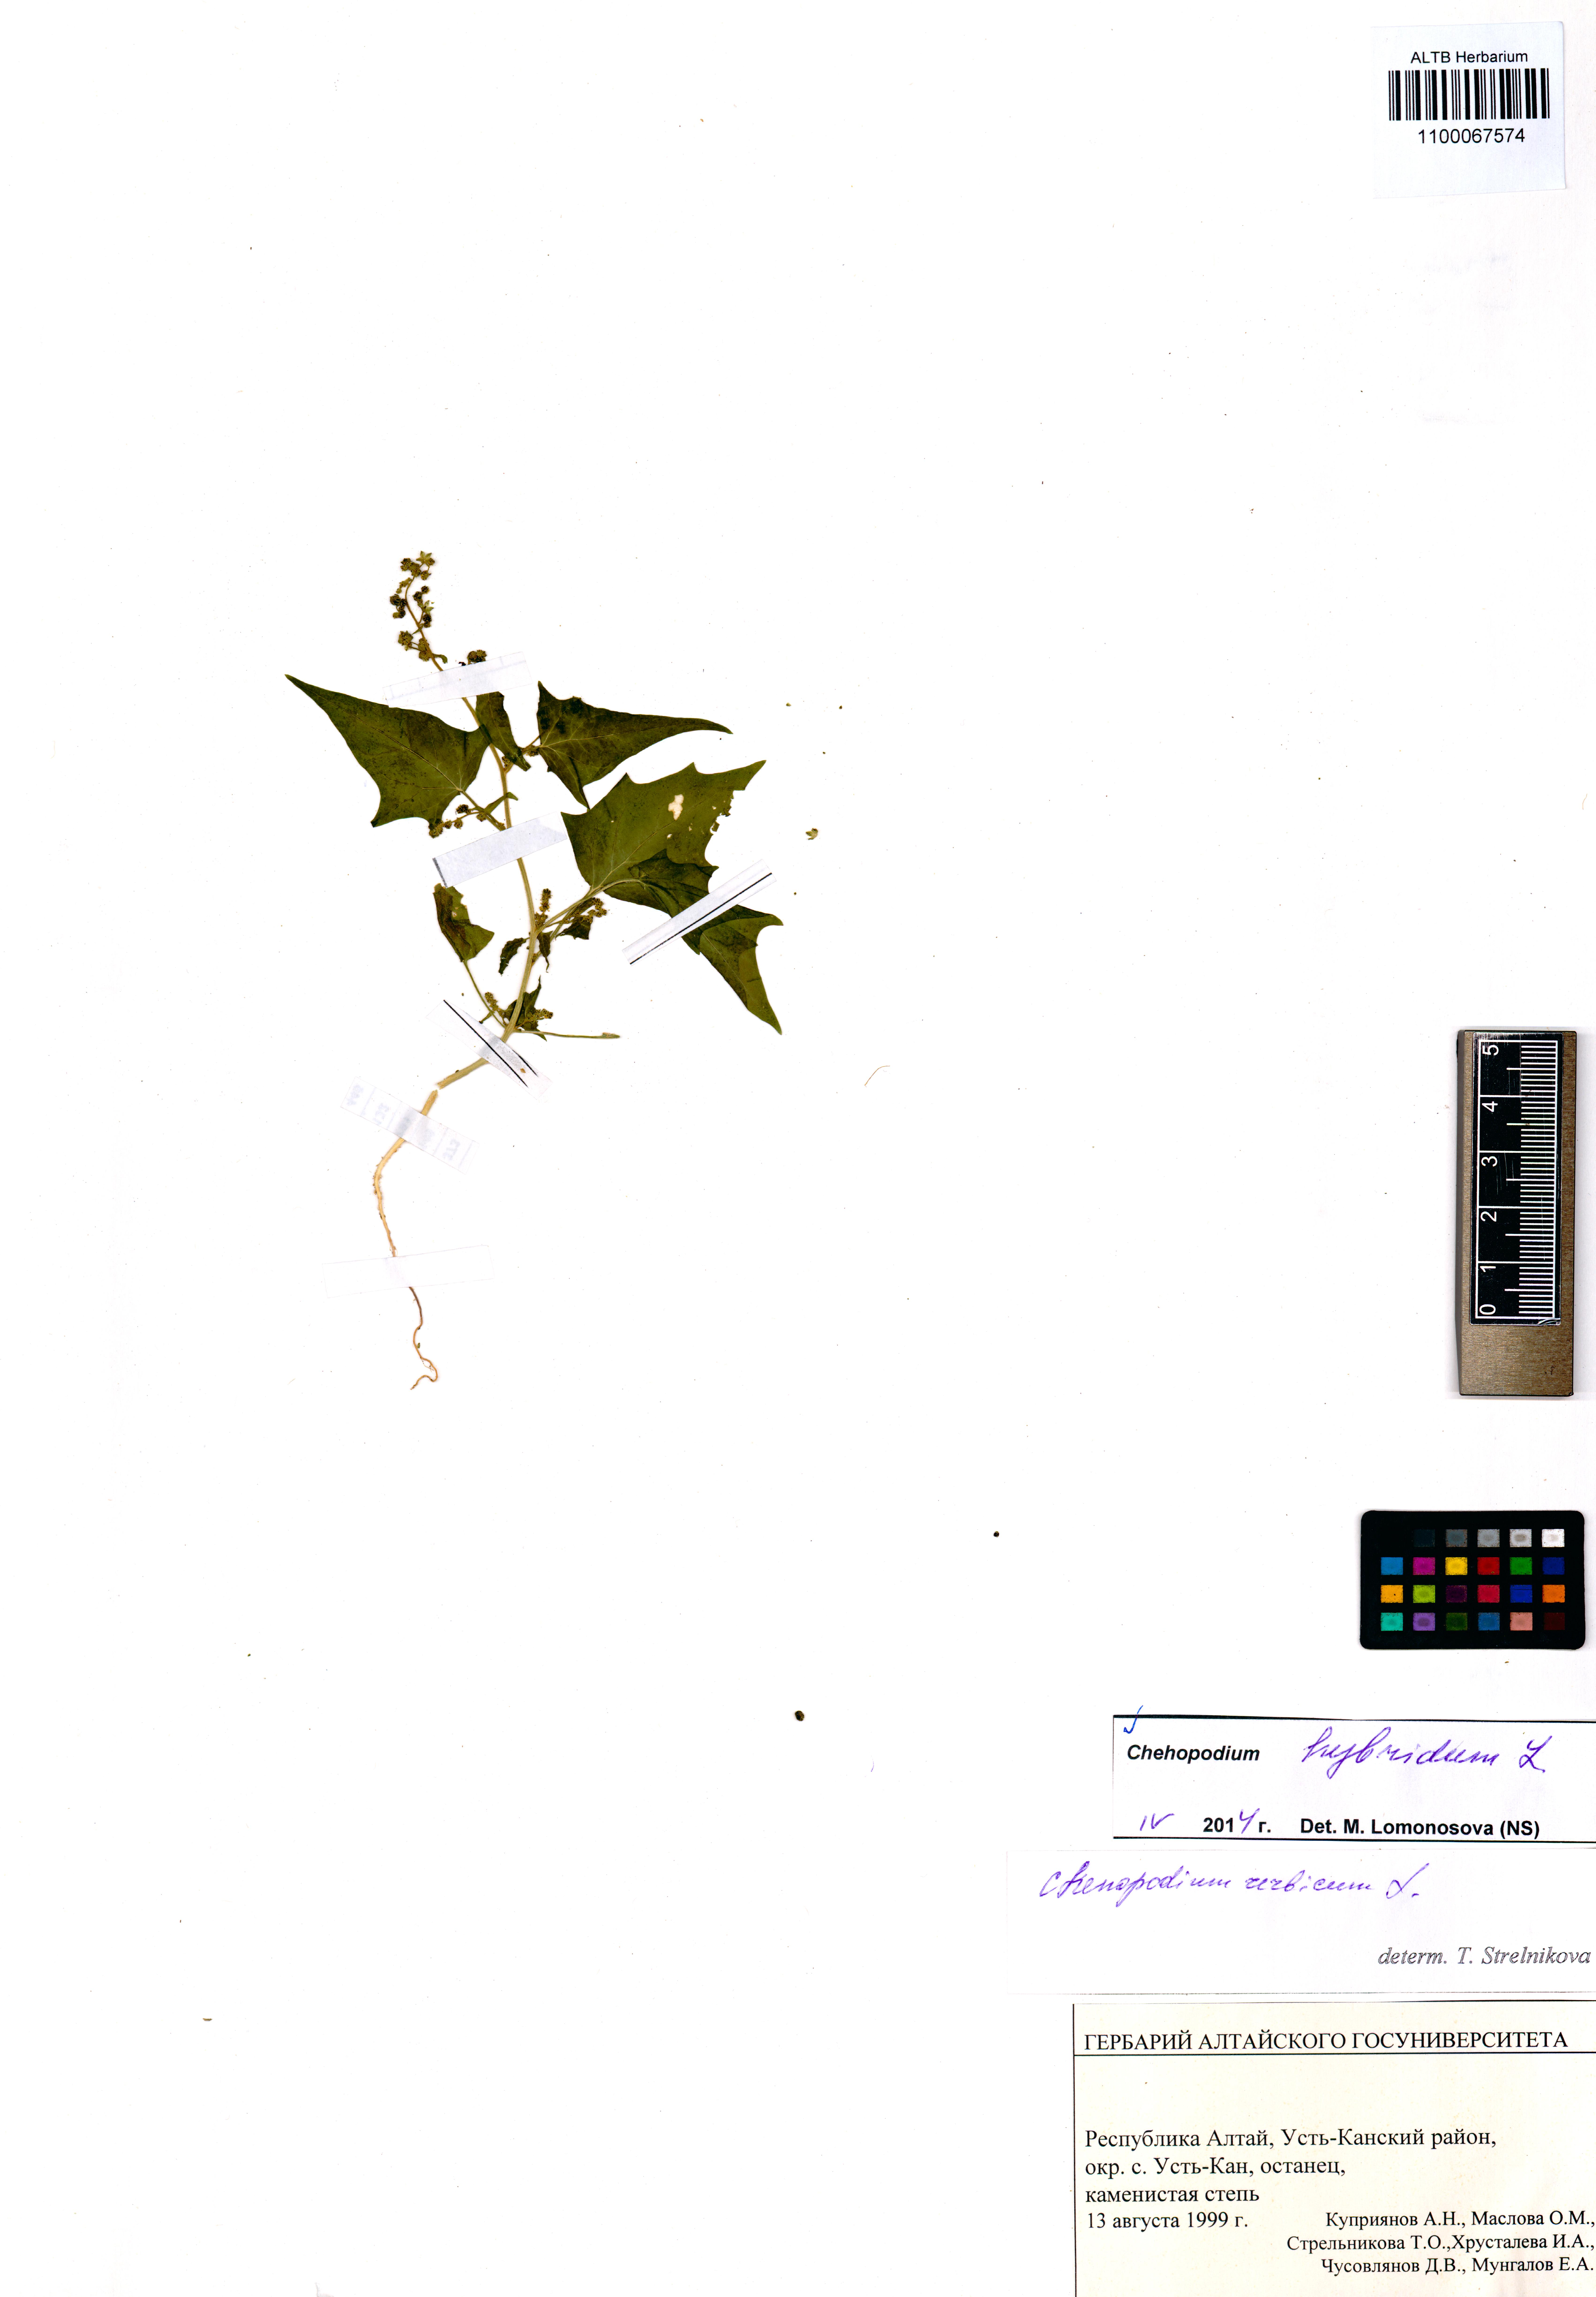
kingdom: Plantae
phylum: Tracheophyta
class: Magnoliopsida
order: Caryophyllales
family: Amaranthaceae
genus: Chenopodiastrum
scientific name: Chenopodiastrum hybridum
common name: Mapleleaf goosefoot
